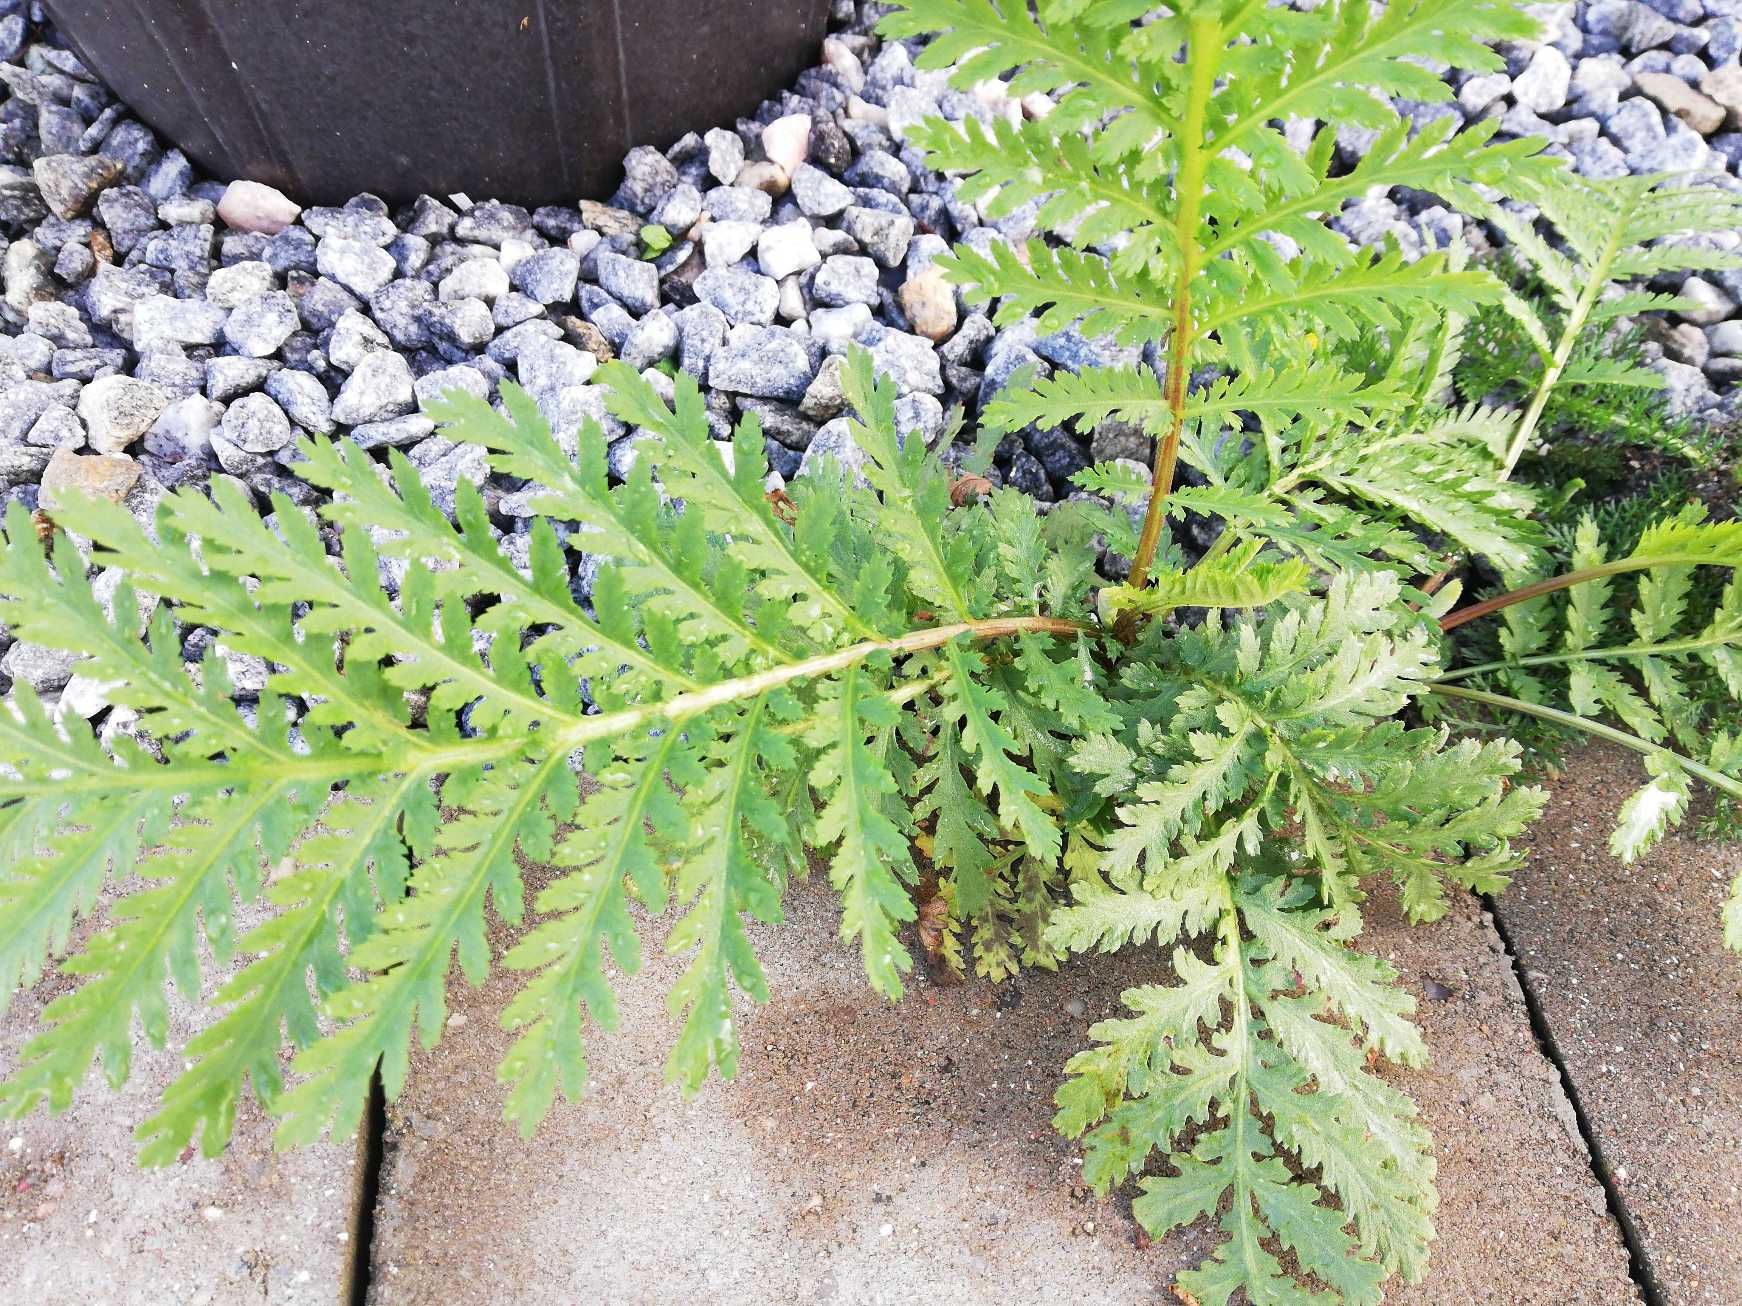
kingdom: Plantae
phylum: Tracheophyta
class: Magnoliopsida
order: Asterales
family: Asteraceae
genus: Tanacetum
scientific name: Tanacetum vulgare
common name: Rejnfan
